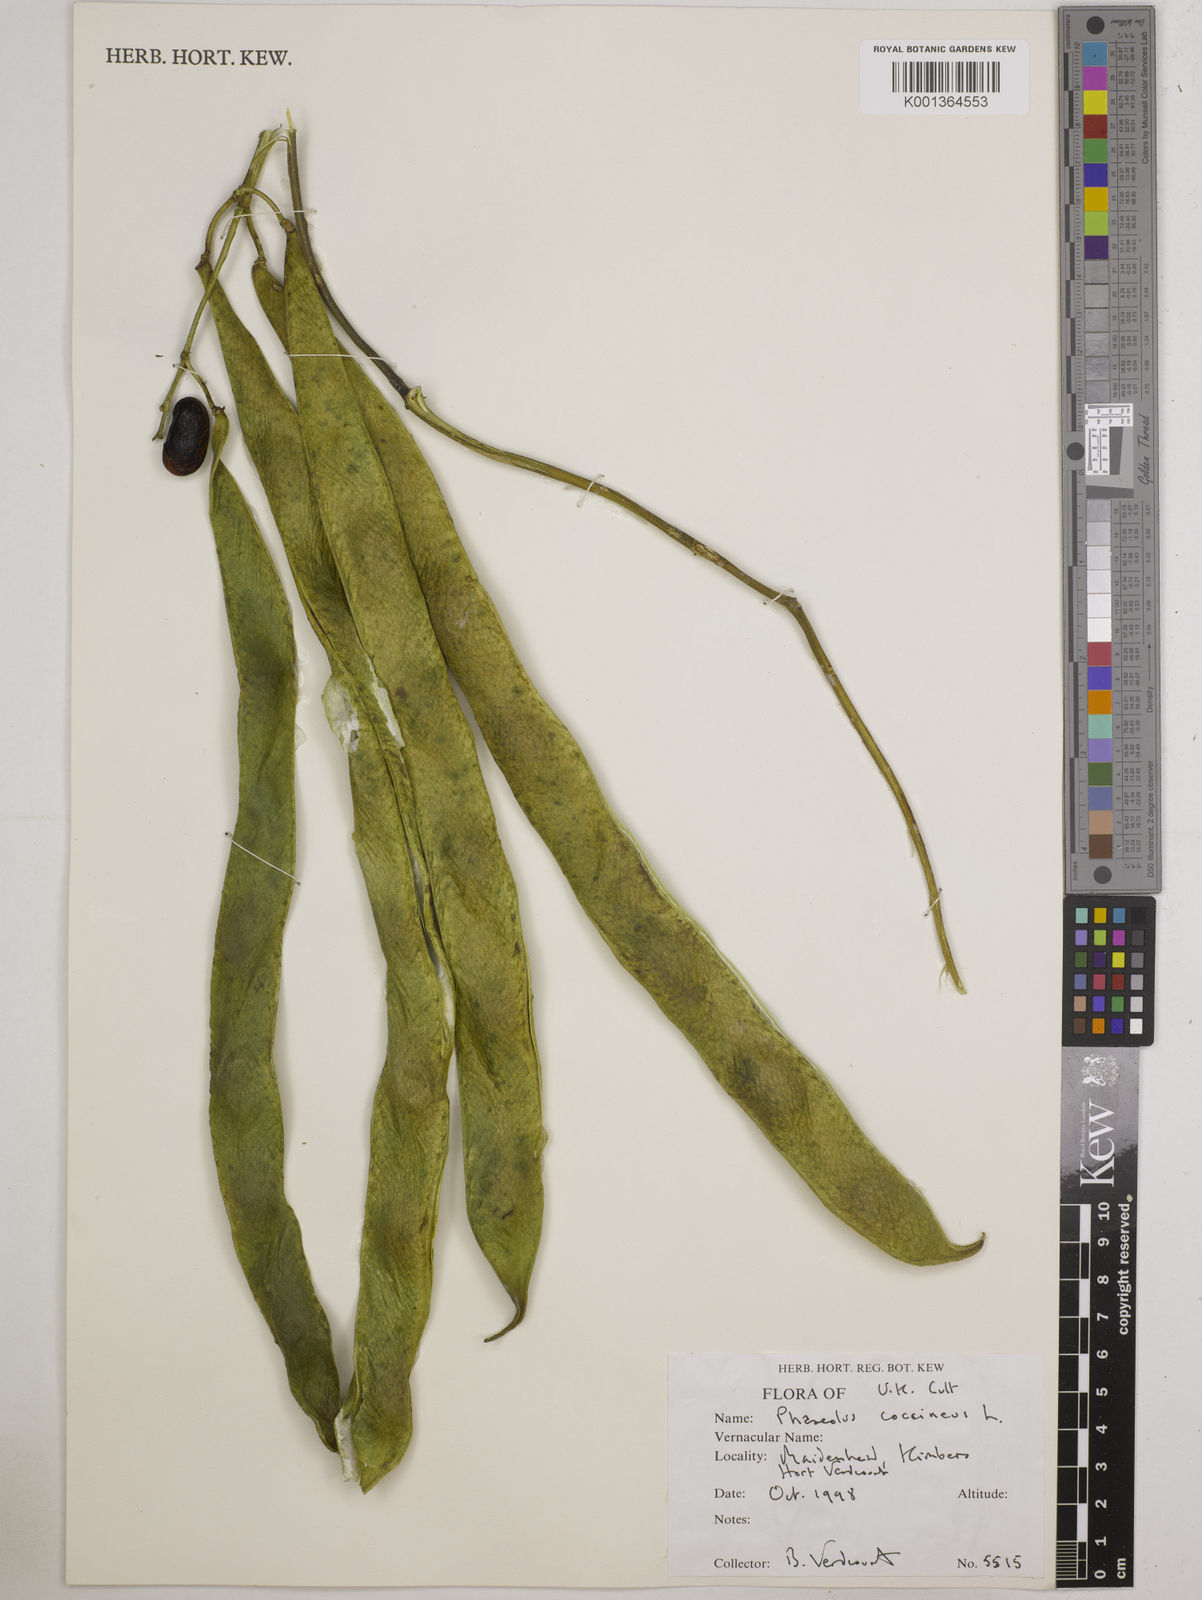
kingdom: Plantae
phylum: Tracheophyta
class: Magnoliopsida
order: Fabales
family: Fabaceae
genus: Phaseolus
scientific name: Phaseolus coccineus
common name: Runner bean
